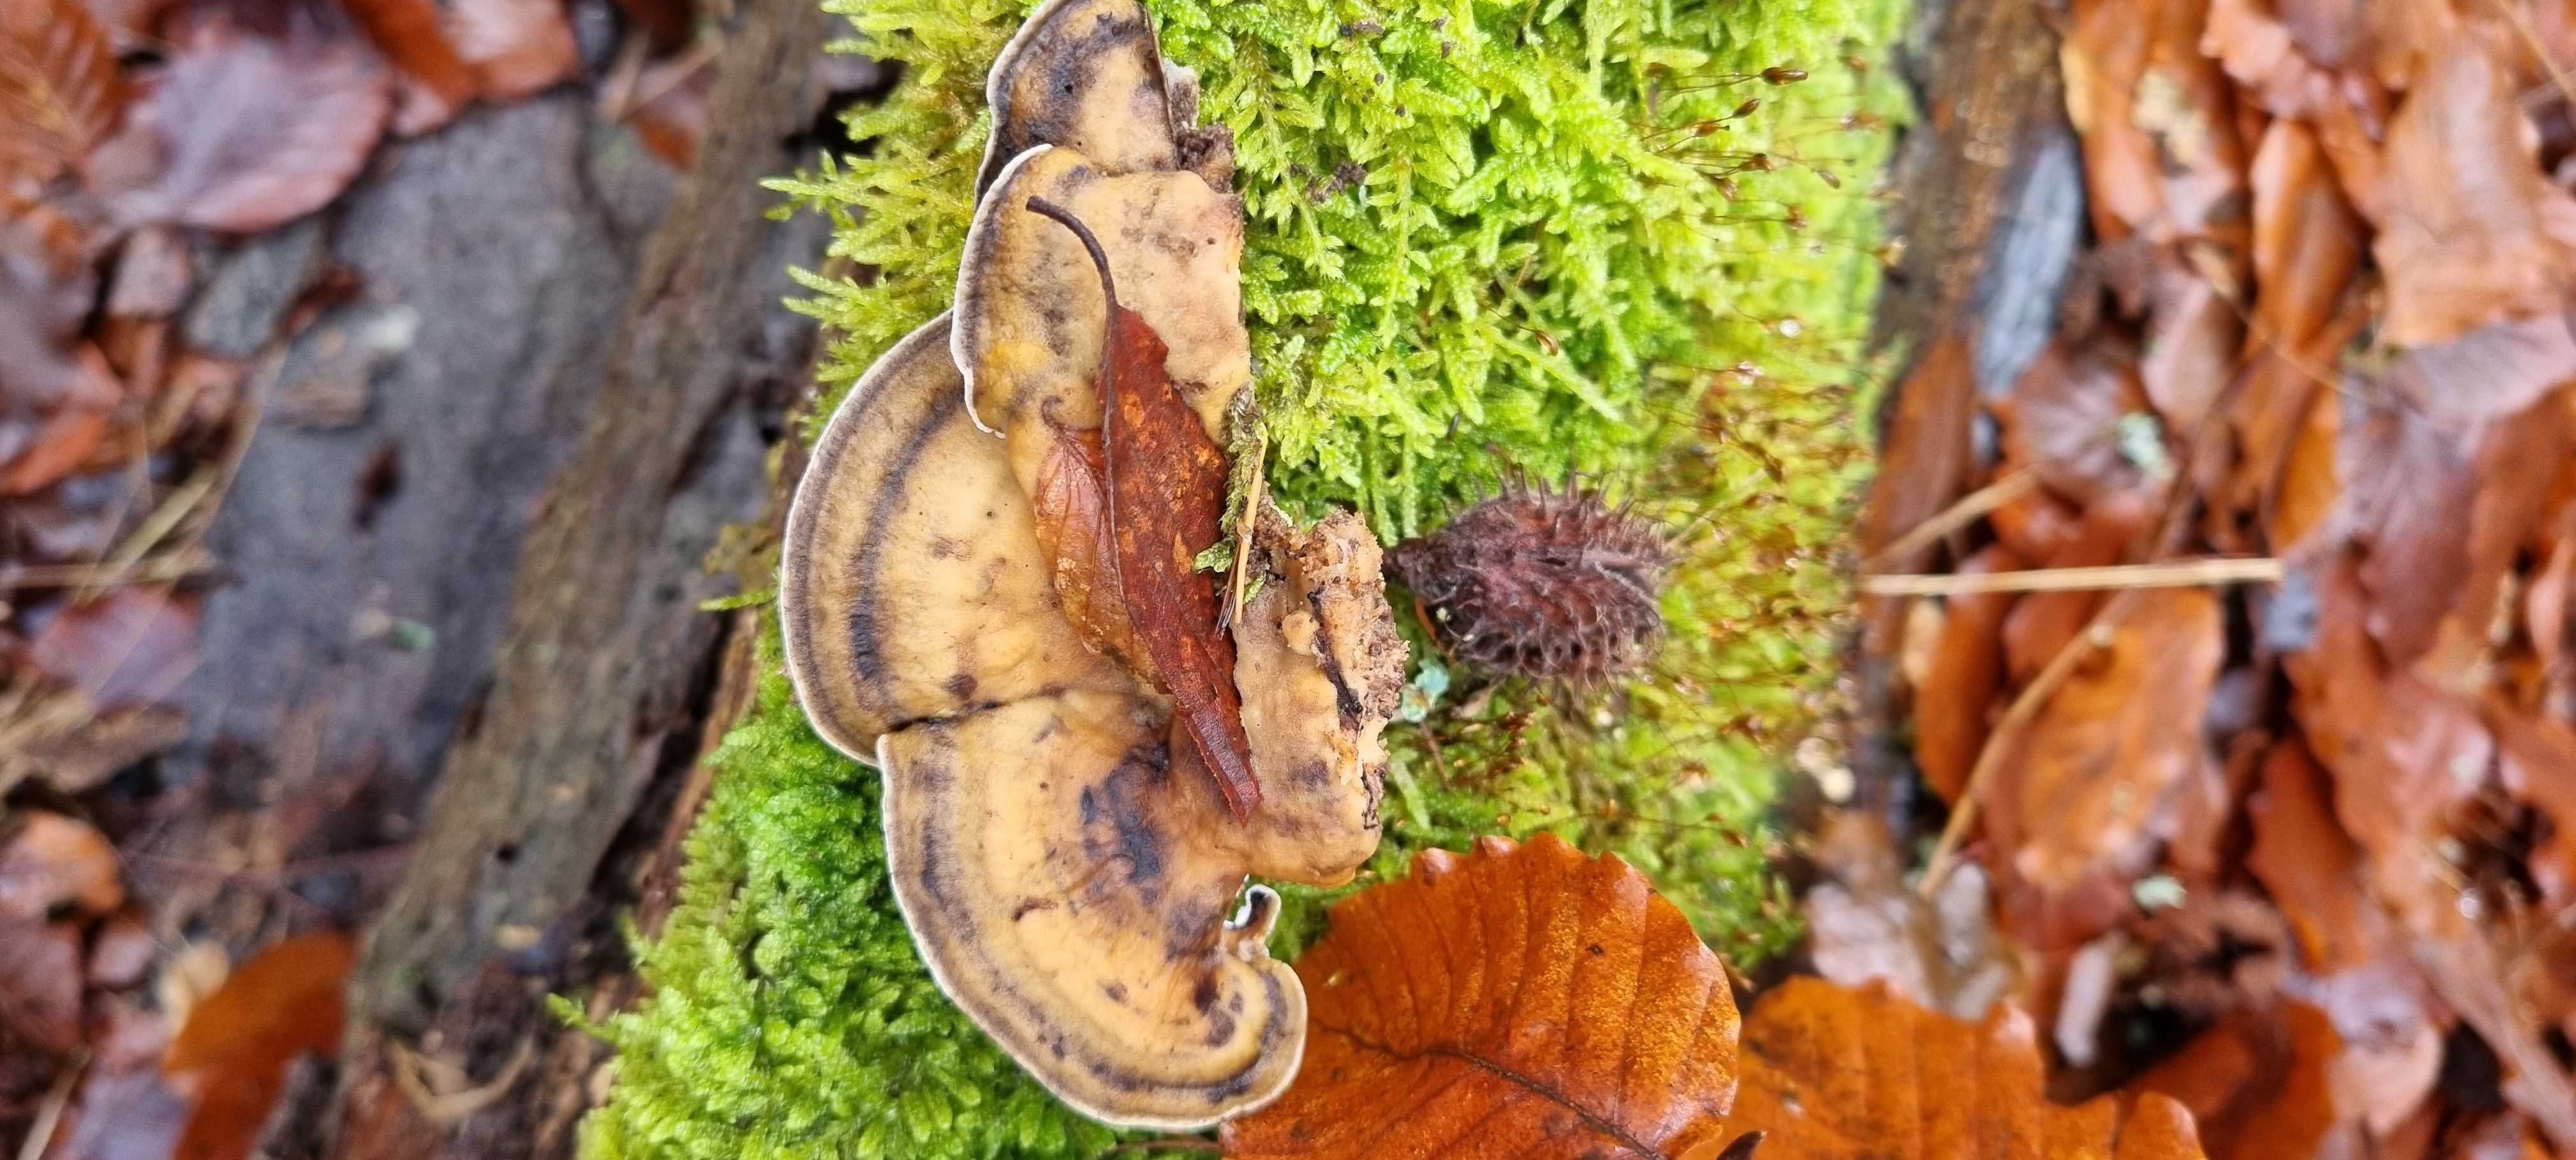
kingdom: Fungi
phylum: Basidiomycota
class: Agaricomycetes
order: Polyporales
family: Phanerochaetaceae
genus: Bjerkandera
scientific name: Bjerkandera adusta
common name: sveden sodporesvamp
